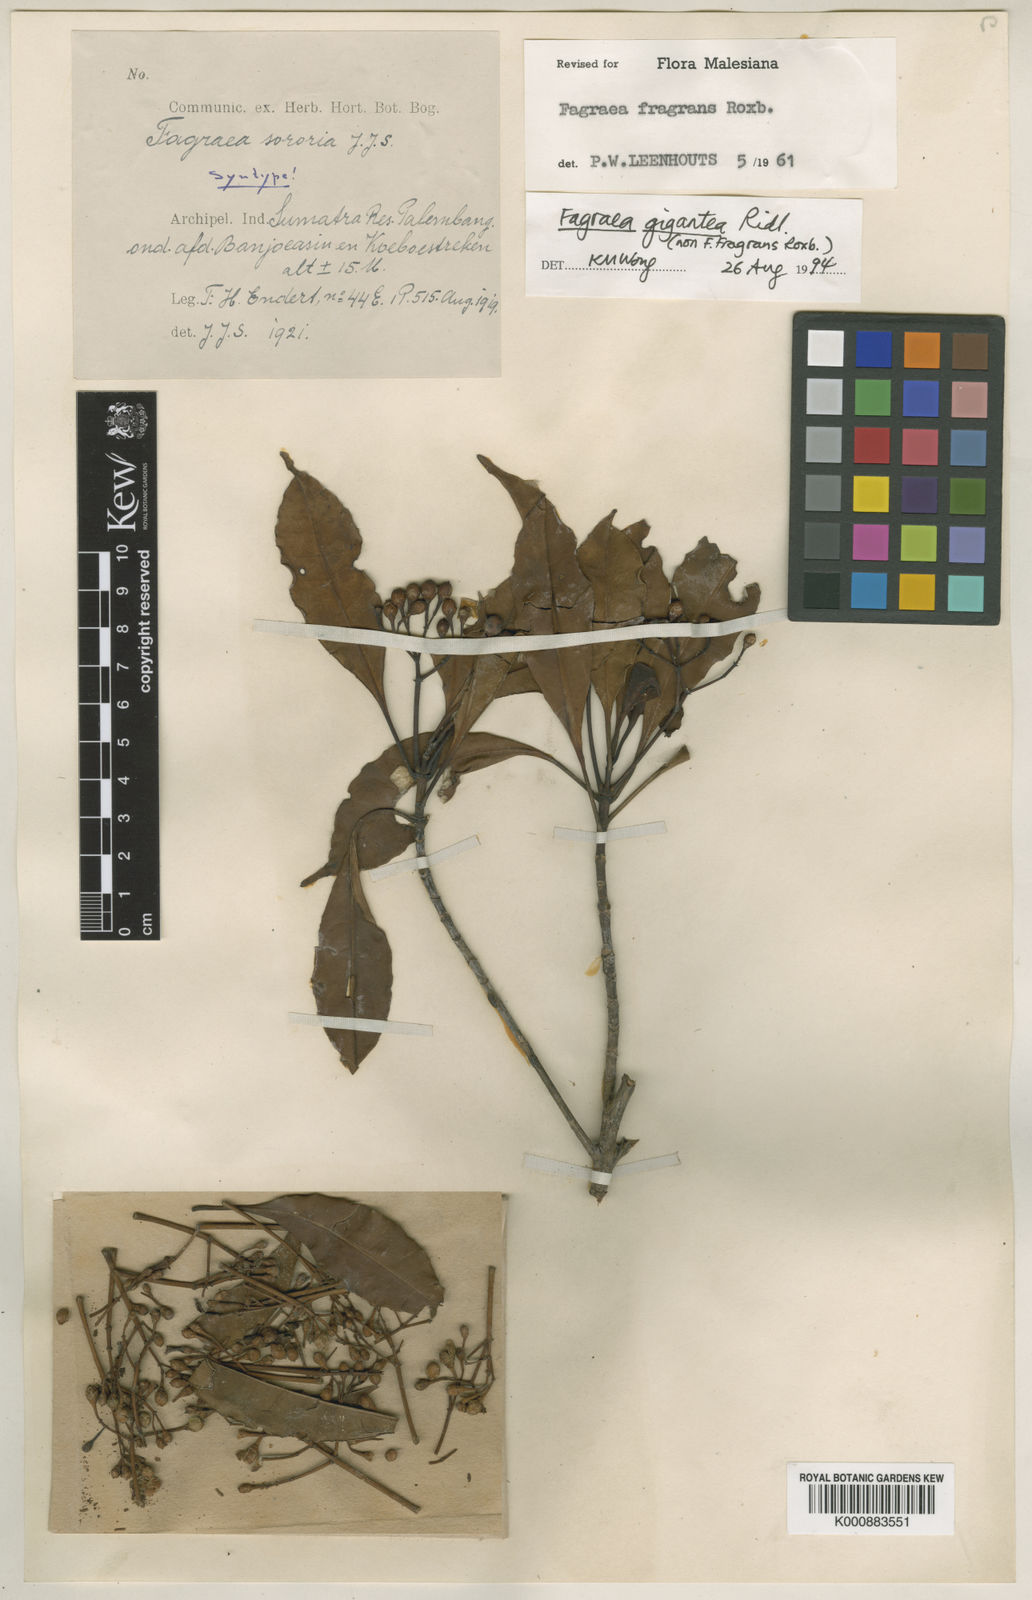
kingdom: Plantae
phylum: Tracheophyta
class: Magnoliopsida
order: Gentianales
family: Gentianaceae
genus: Cyrtophyllum
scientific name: Cyrtophyllum giganteum
